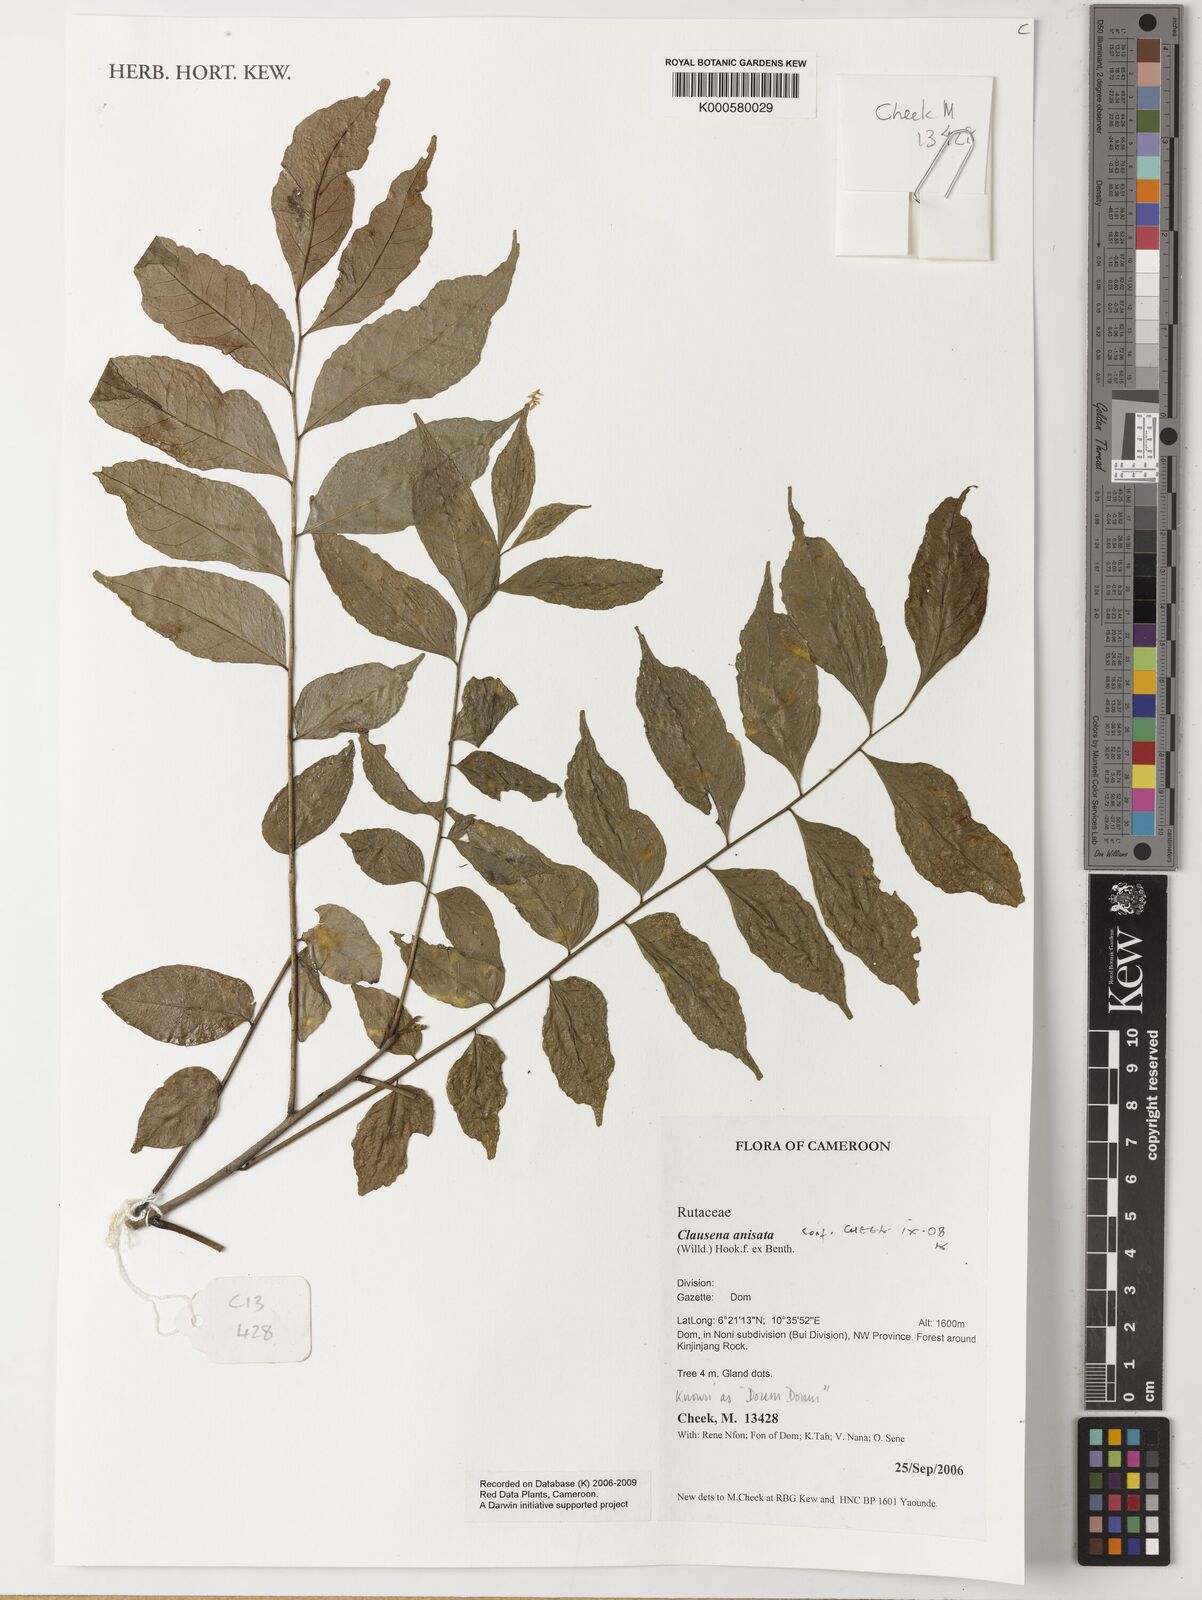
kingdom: Plantae
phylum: Tracheophyta
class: Magnoliopsida
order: Sapindales
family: Rutaceae
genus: Clausena
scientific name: Clausena anisata
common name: Horsewood
